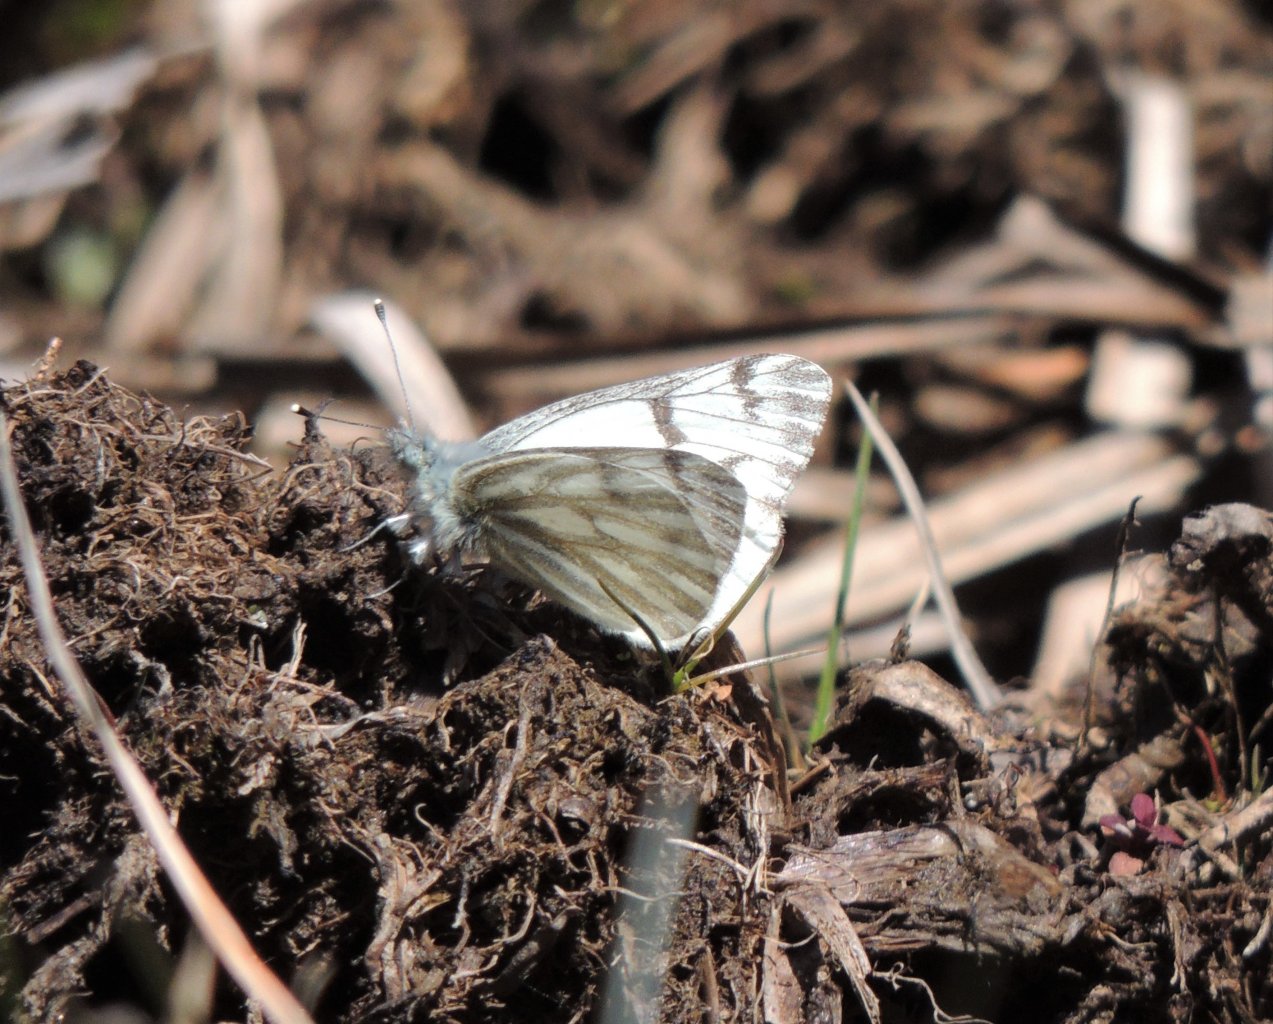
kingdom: Animalia
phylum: Arthropoda
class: Insecta
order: Lepidoptera
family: Pieridae
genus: Pontia
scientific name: Pontia sisymbrii
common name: Spring White
